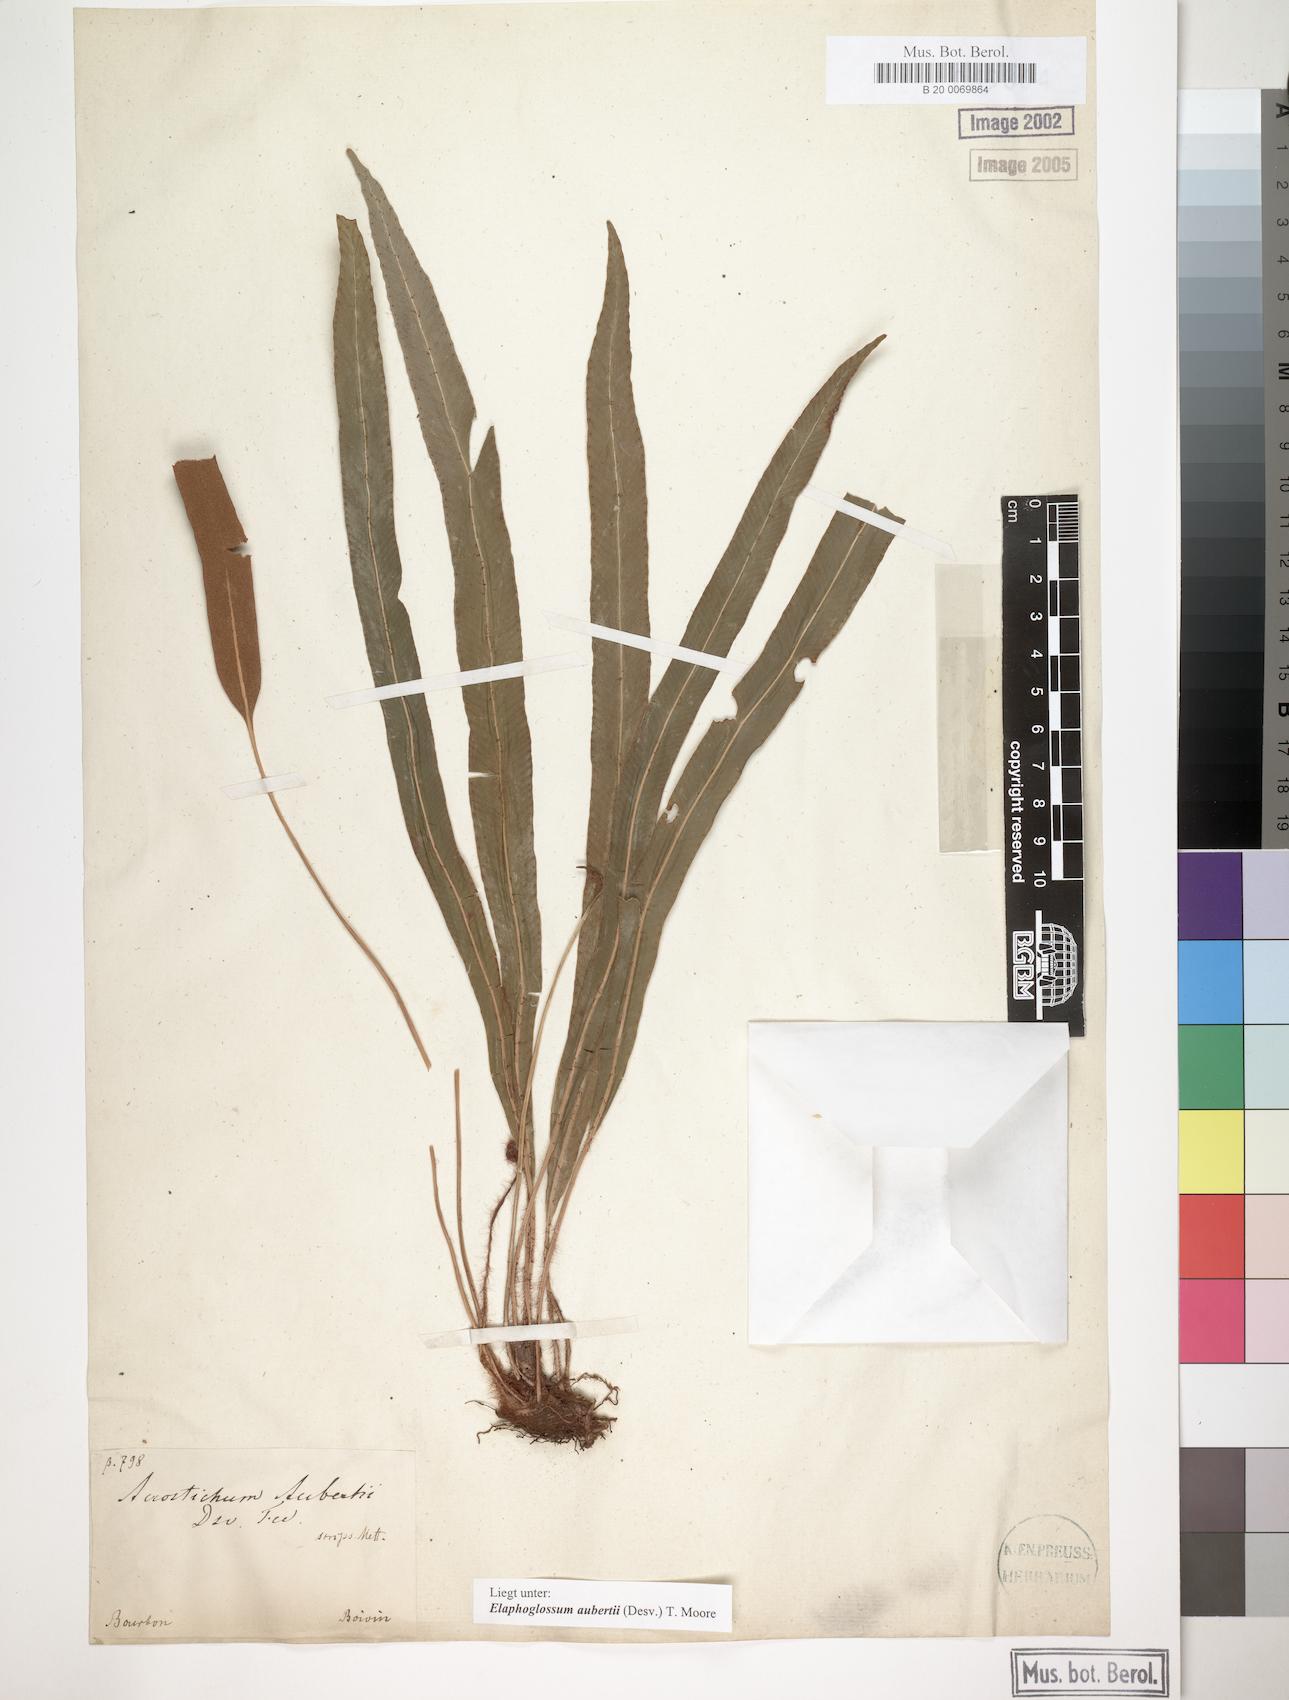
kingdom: Plantae
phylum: Tracheophyta
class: Polypodiopsida
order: Polypodiales
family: Dryopteridaceae
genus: Elaphoglossum
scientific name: Elaphoglossum aubertii
